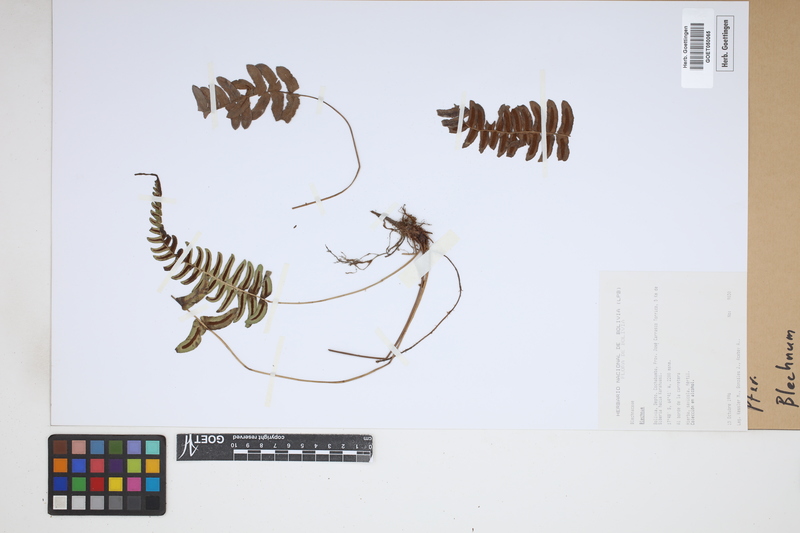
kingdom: Plantae
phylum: Tracheophyta
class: Polypodiopsida
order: Polypodiales
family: Blechnaceae
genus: Blechnum
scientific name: Blechnum
